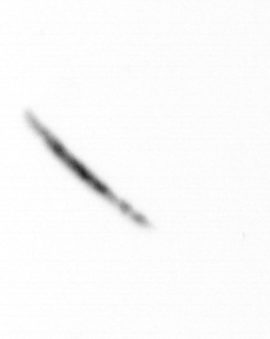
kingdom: Chromista
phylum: Ochrophyta
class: Bacillariophyceae
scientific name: Bacillariophyceae
